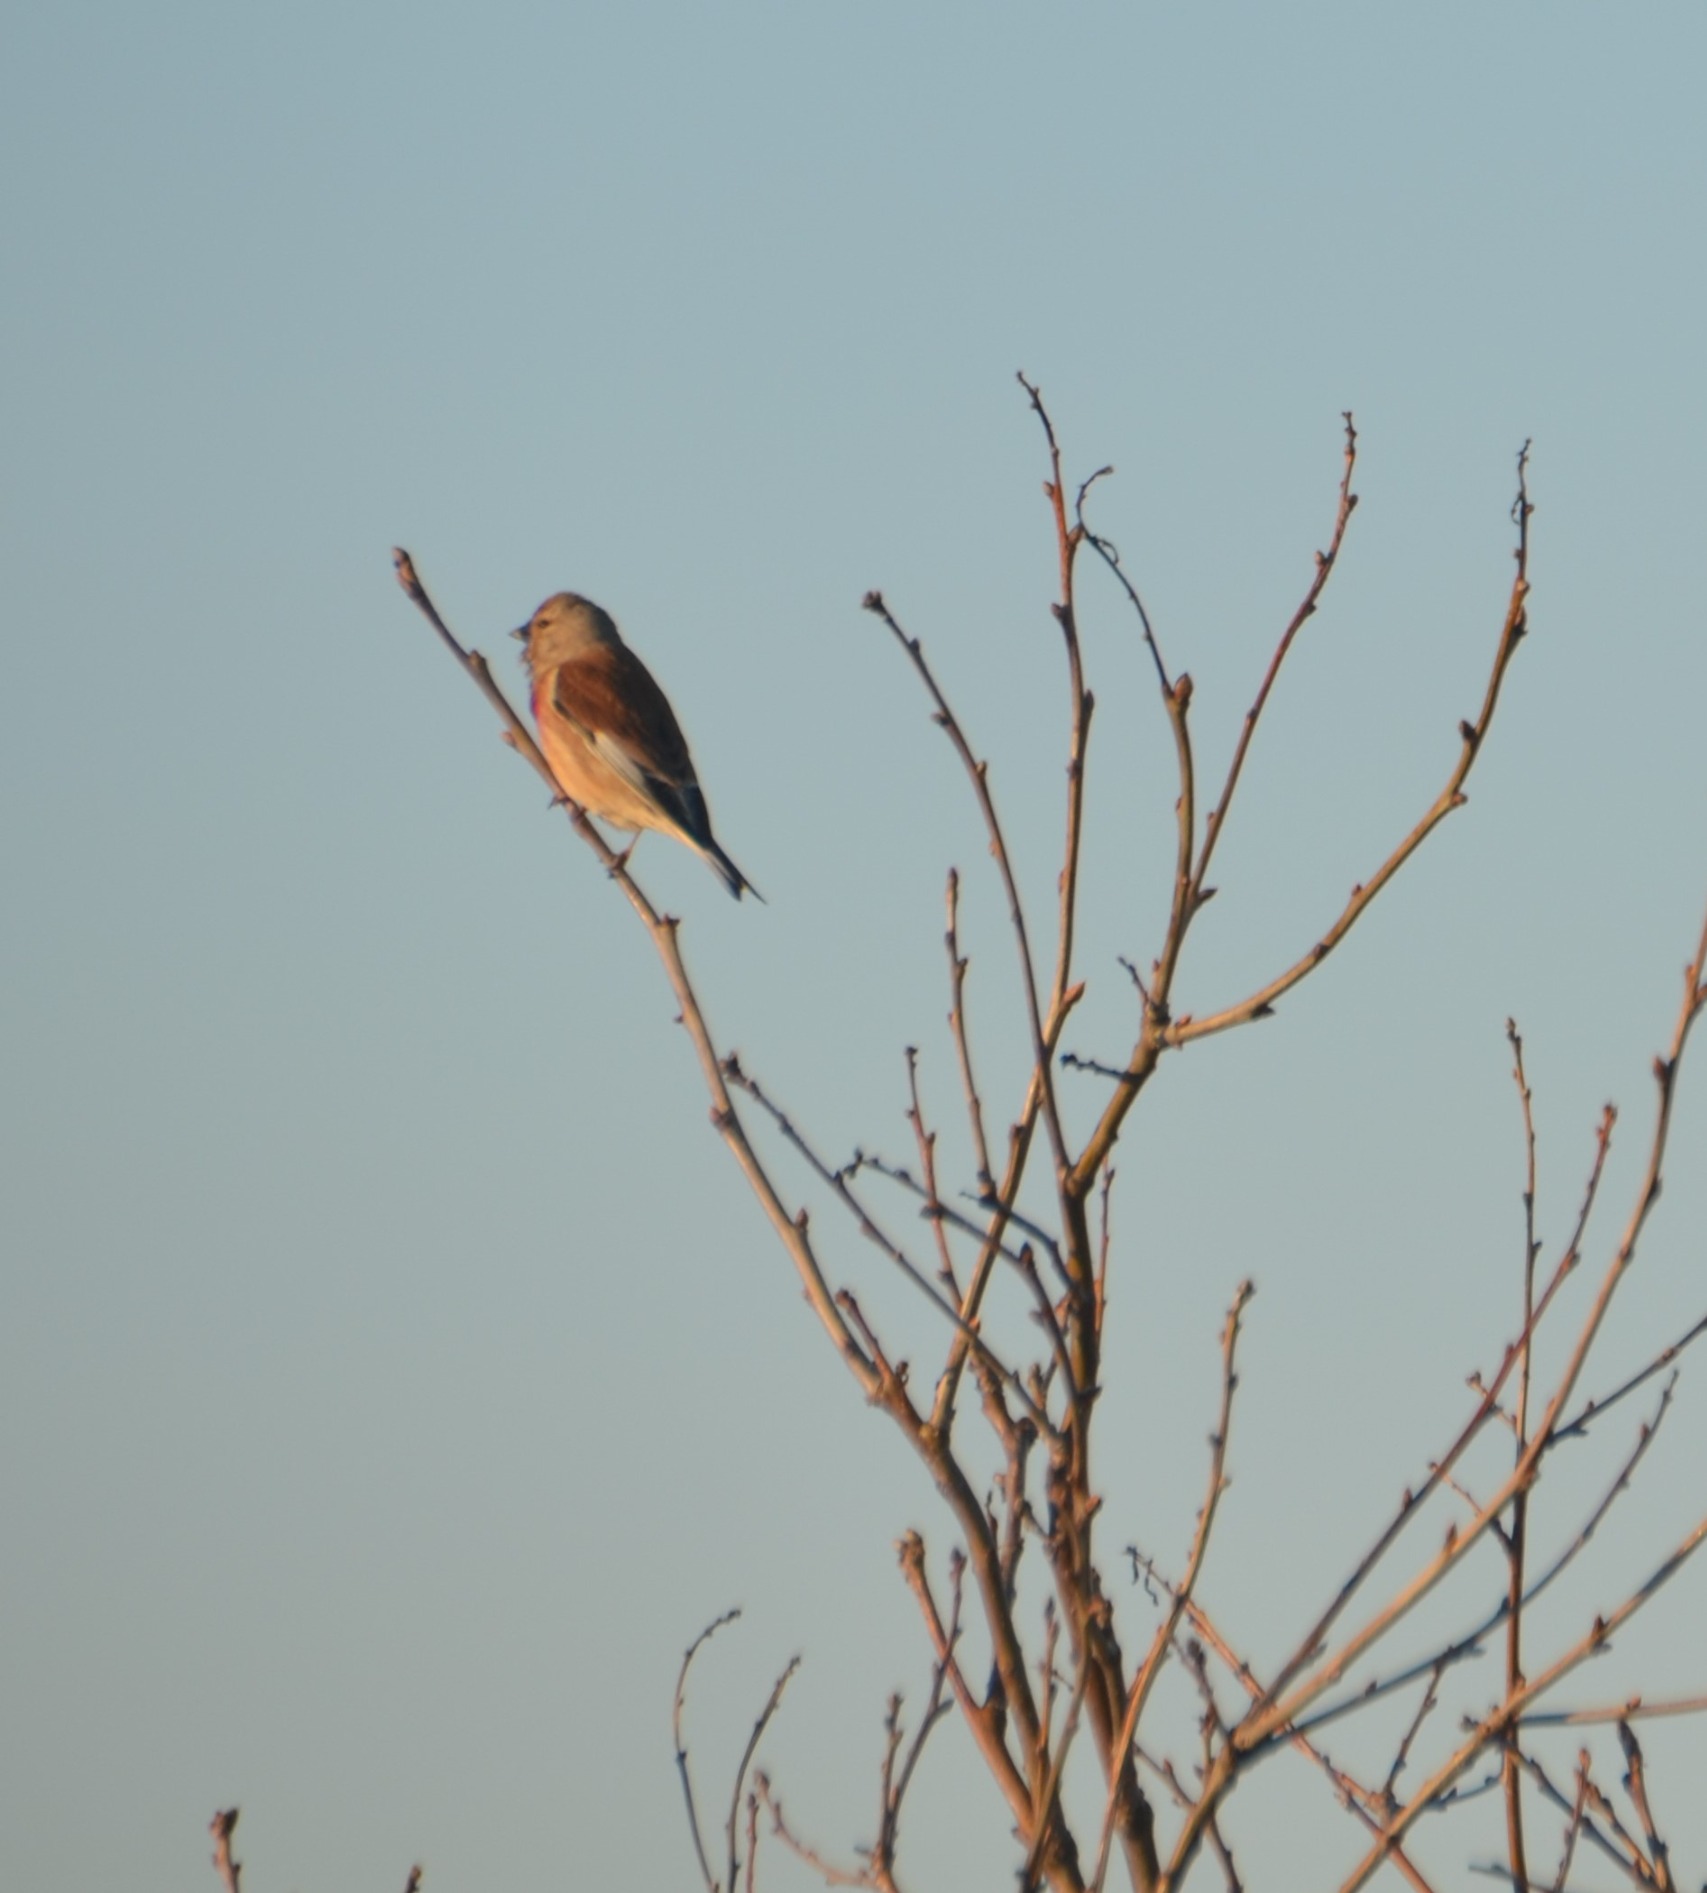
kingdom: Animalia
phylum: Chordata
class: Aves
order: Passeriformes
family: Fringillidae
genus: Linaria
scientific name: Linaria cannabina
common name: Tornirisk
